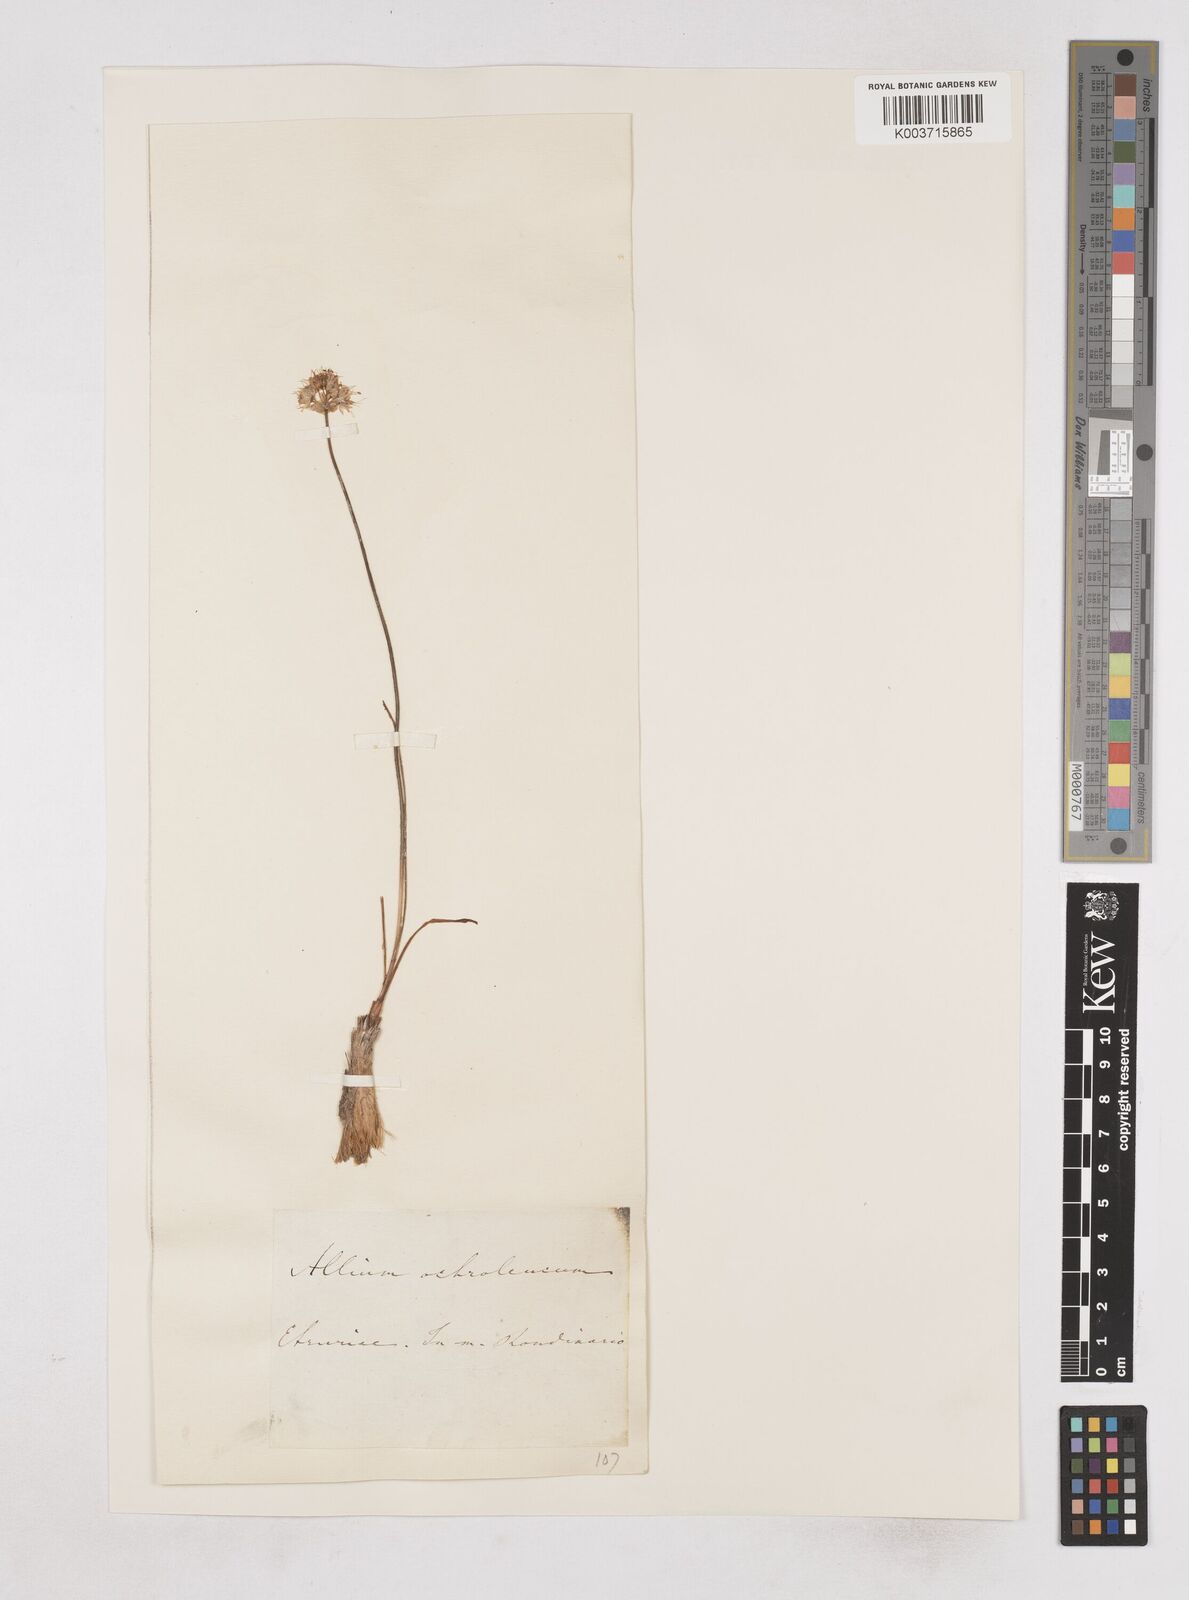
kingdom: Plantae
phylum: Tracheophyta
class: Liliopsida
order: Asparagales
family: Amaryllidaceae
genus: Allium
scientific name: Allium ericetorum
